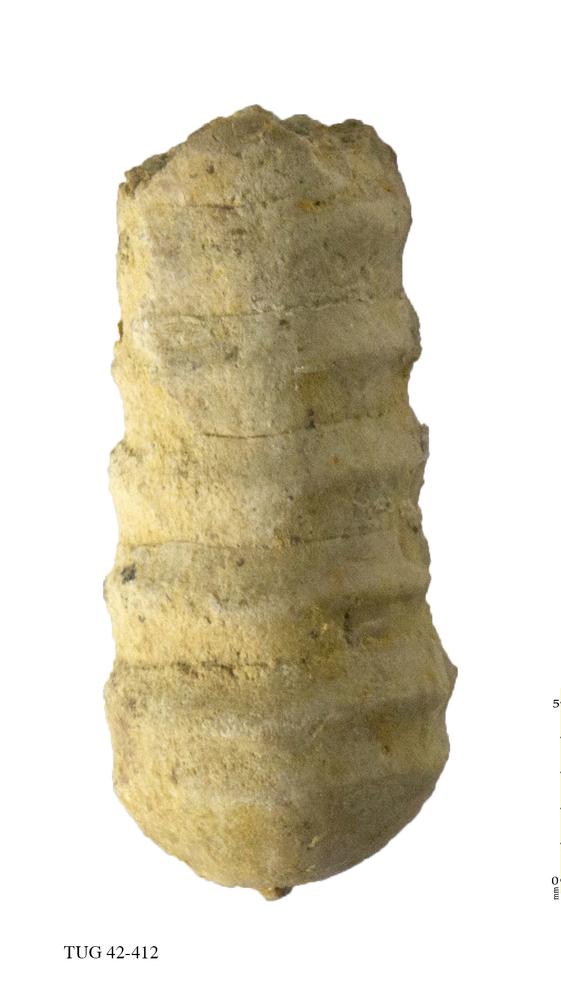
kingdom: Animalia
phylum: Mollusca
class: Cephalopoda
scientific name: Cephalopoda
